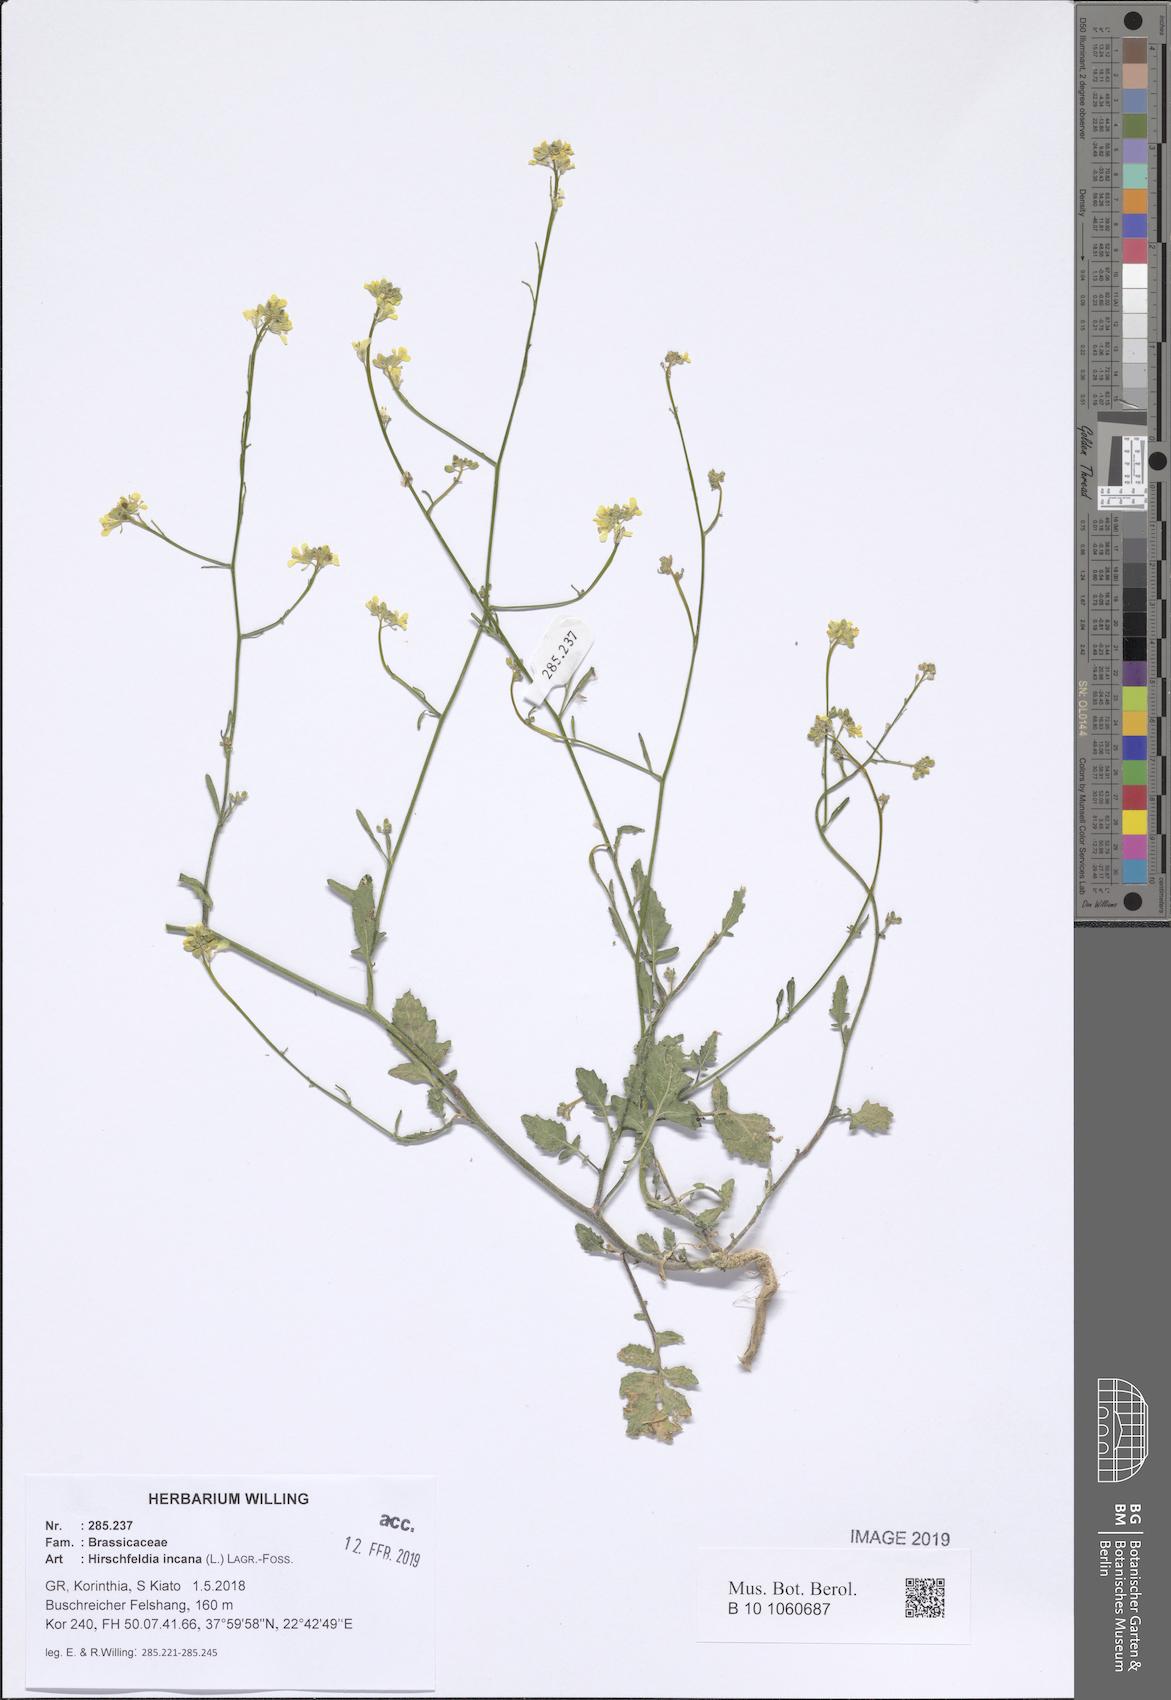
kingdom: Plantae
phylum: Tracheophyta
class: Magnoliopsida
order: Brassicales
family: Brassicaceae
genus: Hirschfeldia
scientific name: Hirschfeldia incana
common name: Hoary mustard
